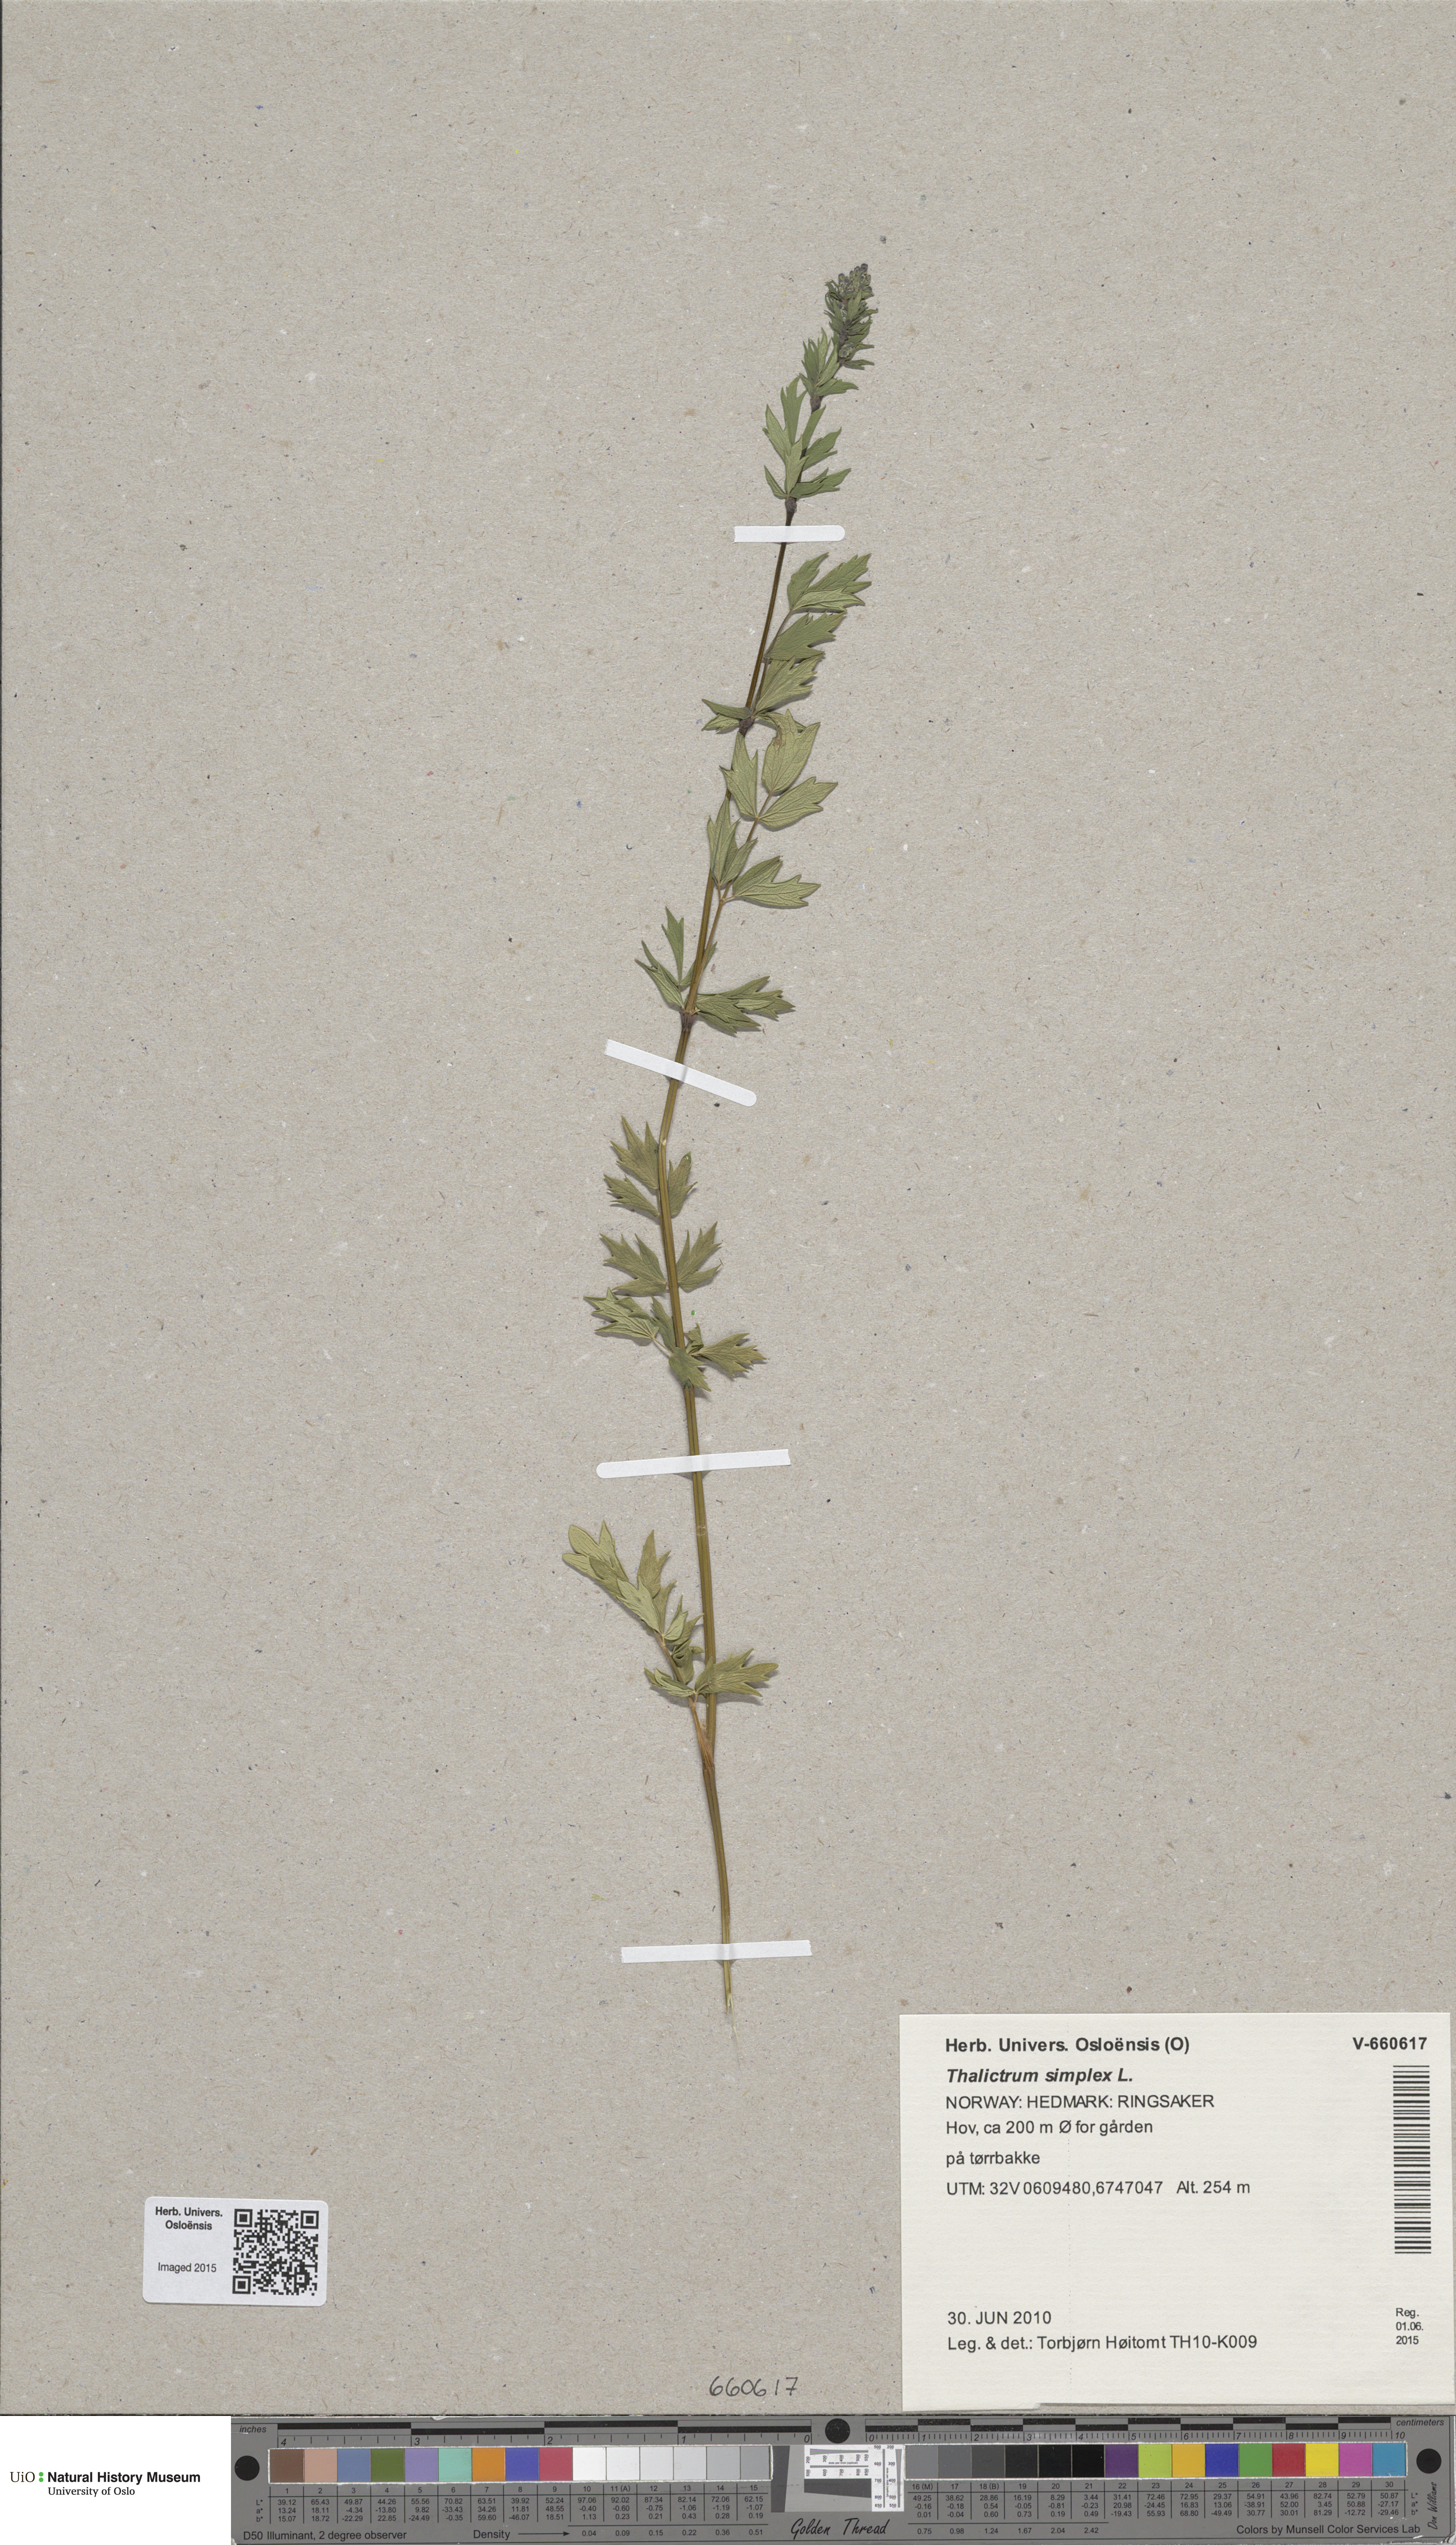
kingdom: Plantae
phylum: Tracheophyta
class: Magnoliopsida
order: Ranunculales
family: Ranunculaceae
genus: Thalictrum
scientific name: Thalictrum simplex
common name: Small meadow-rue
